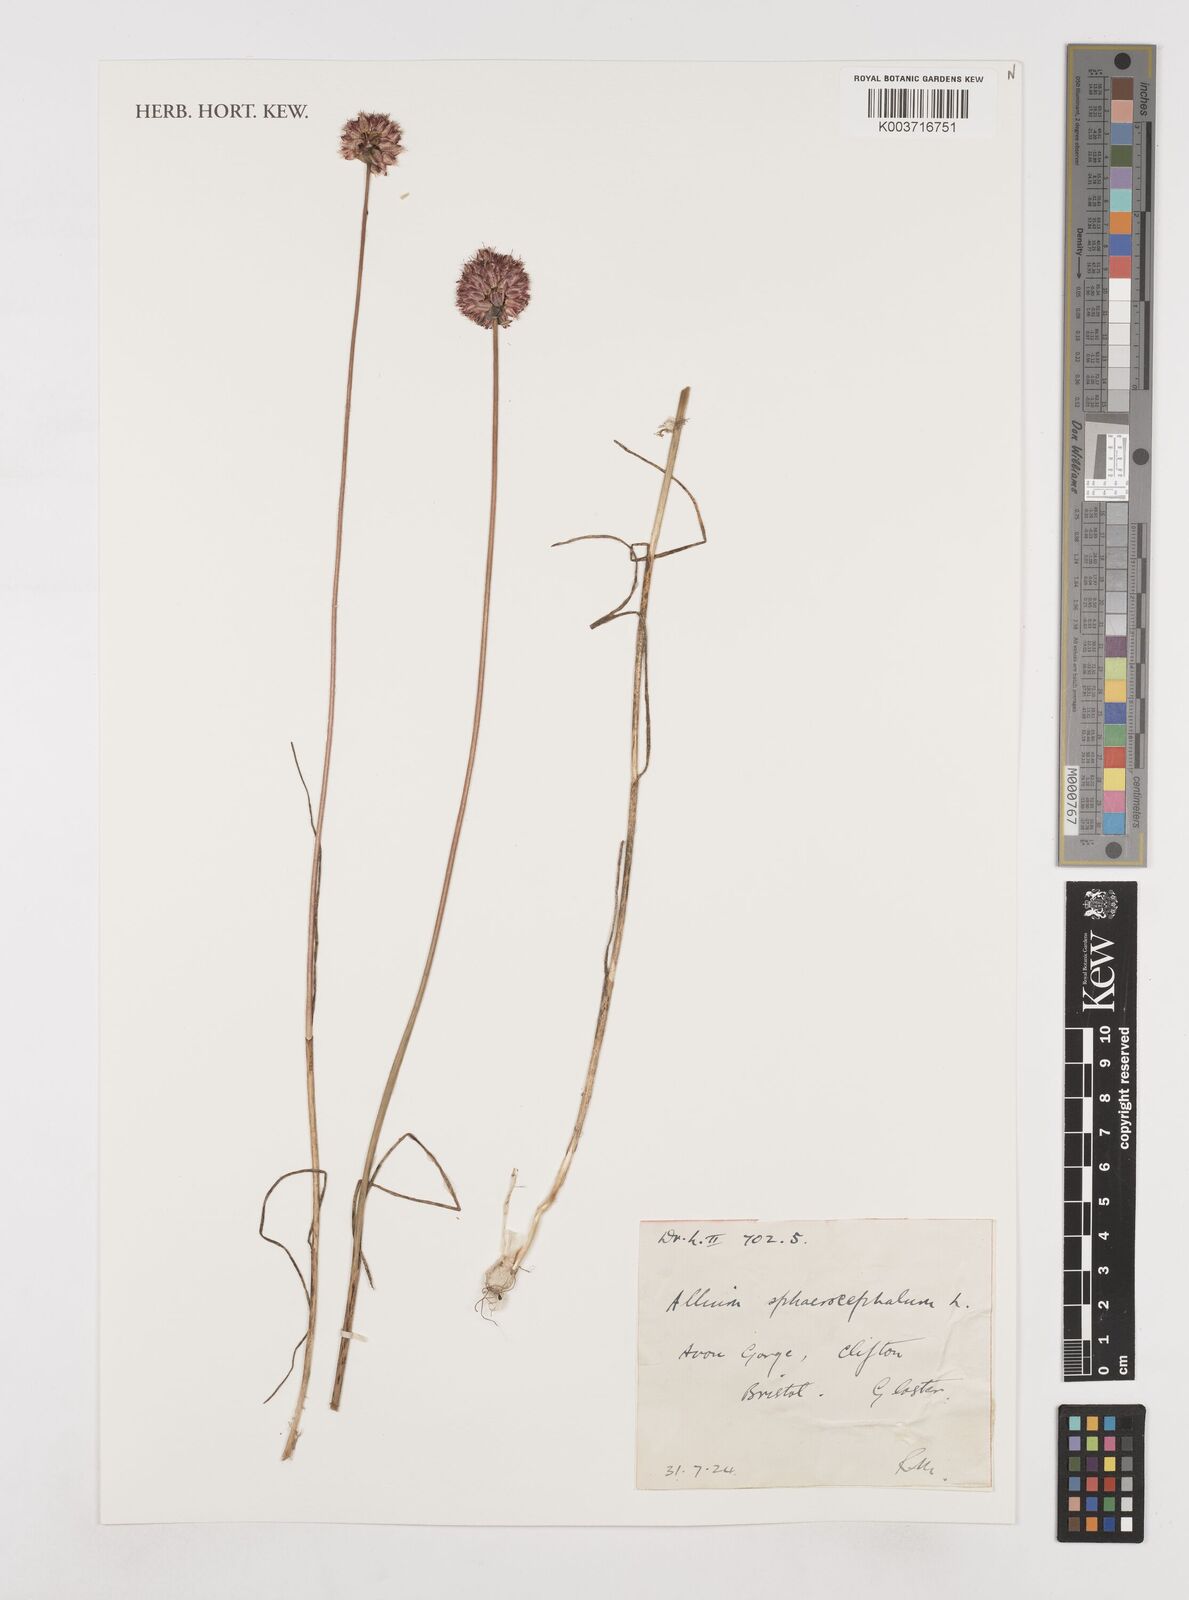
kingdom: Plantae
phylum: Tracheophyta
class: Liliopsida
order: Asparagales
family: Amaryllidaceae
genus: Allium
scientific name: Allium sphaerocephalon
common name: Round-headed leek
